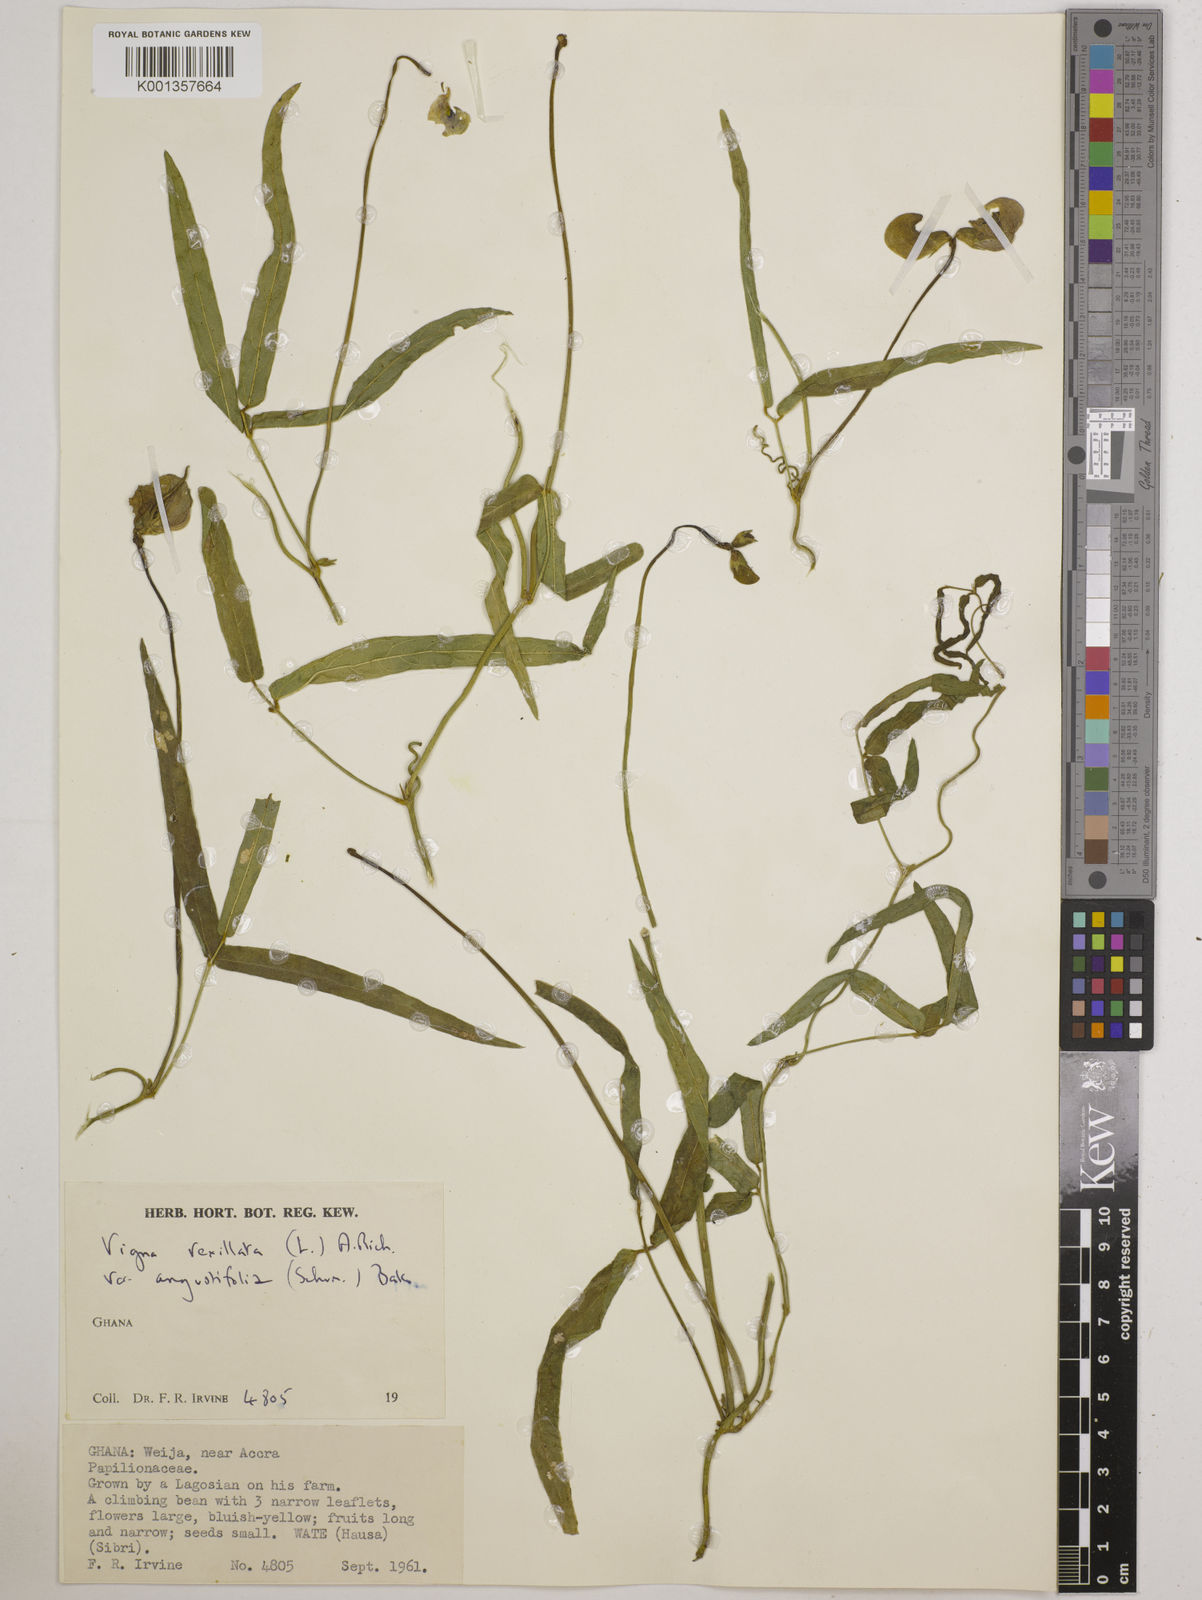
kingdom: Plantae
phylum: Tracheophyta
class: Magnoliopsida
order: Fabales
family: Fabaceae
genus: Vigna
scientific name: Vigna vexillata
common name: Zombi pea
